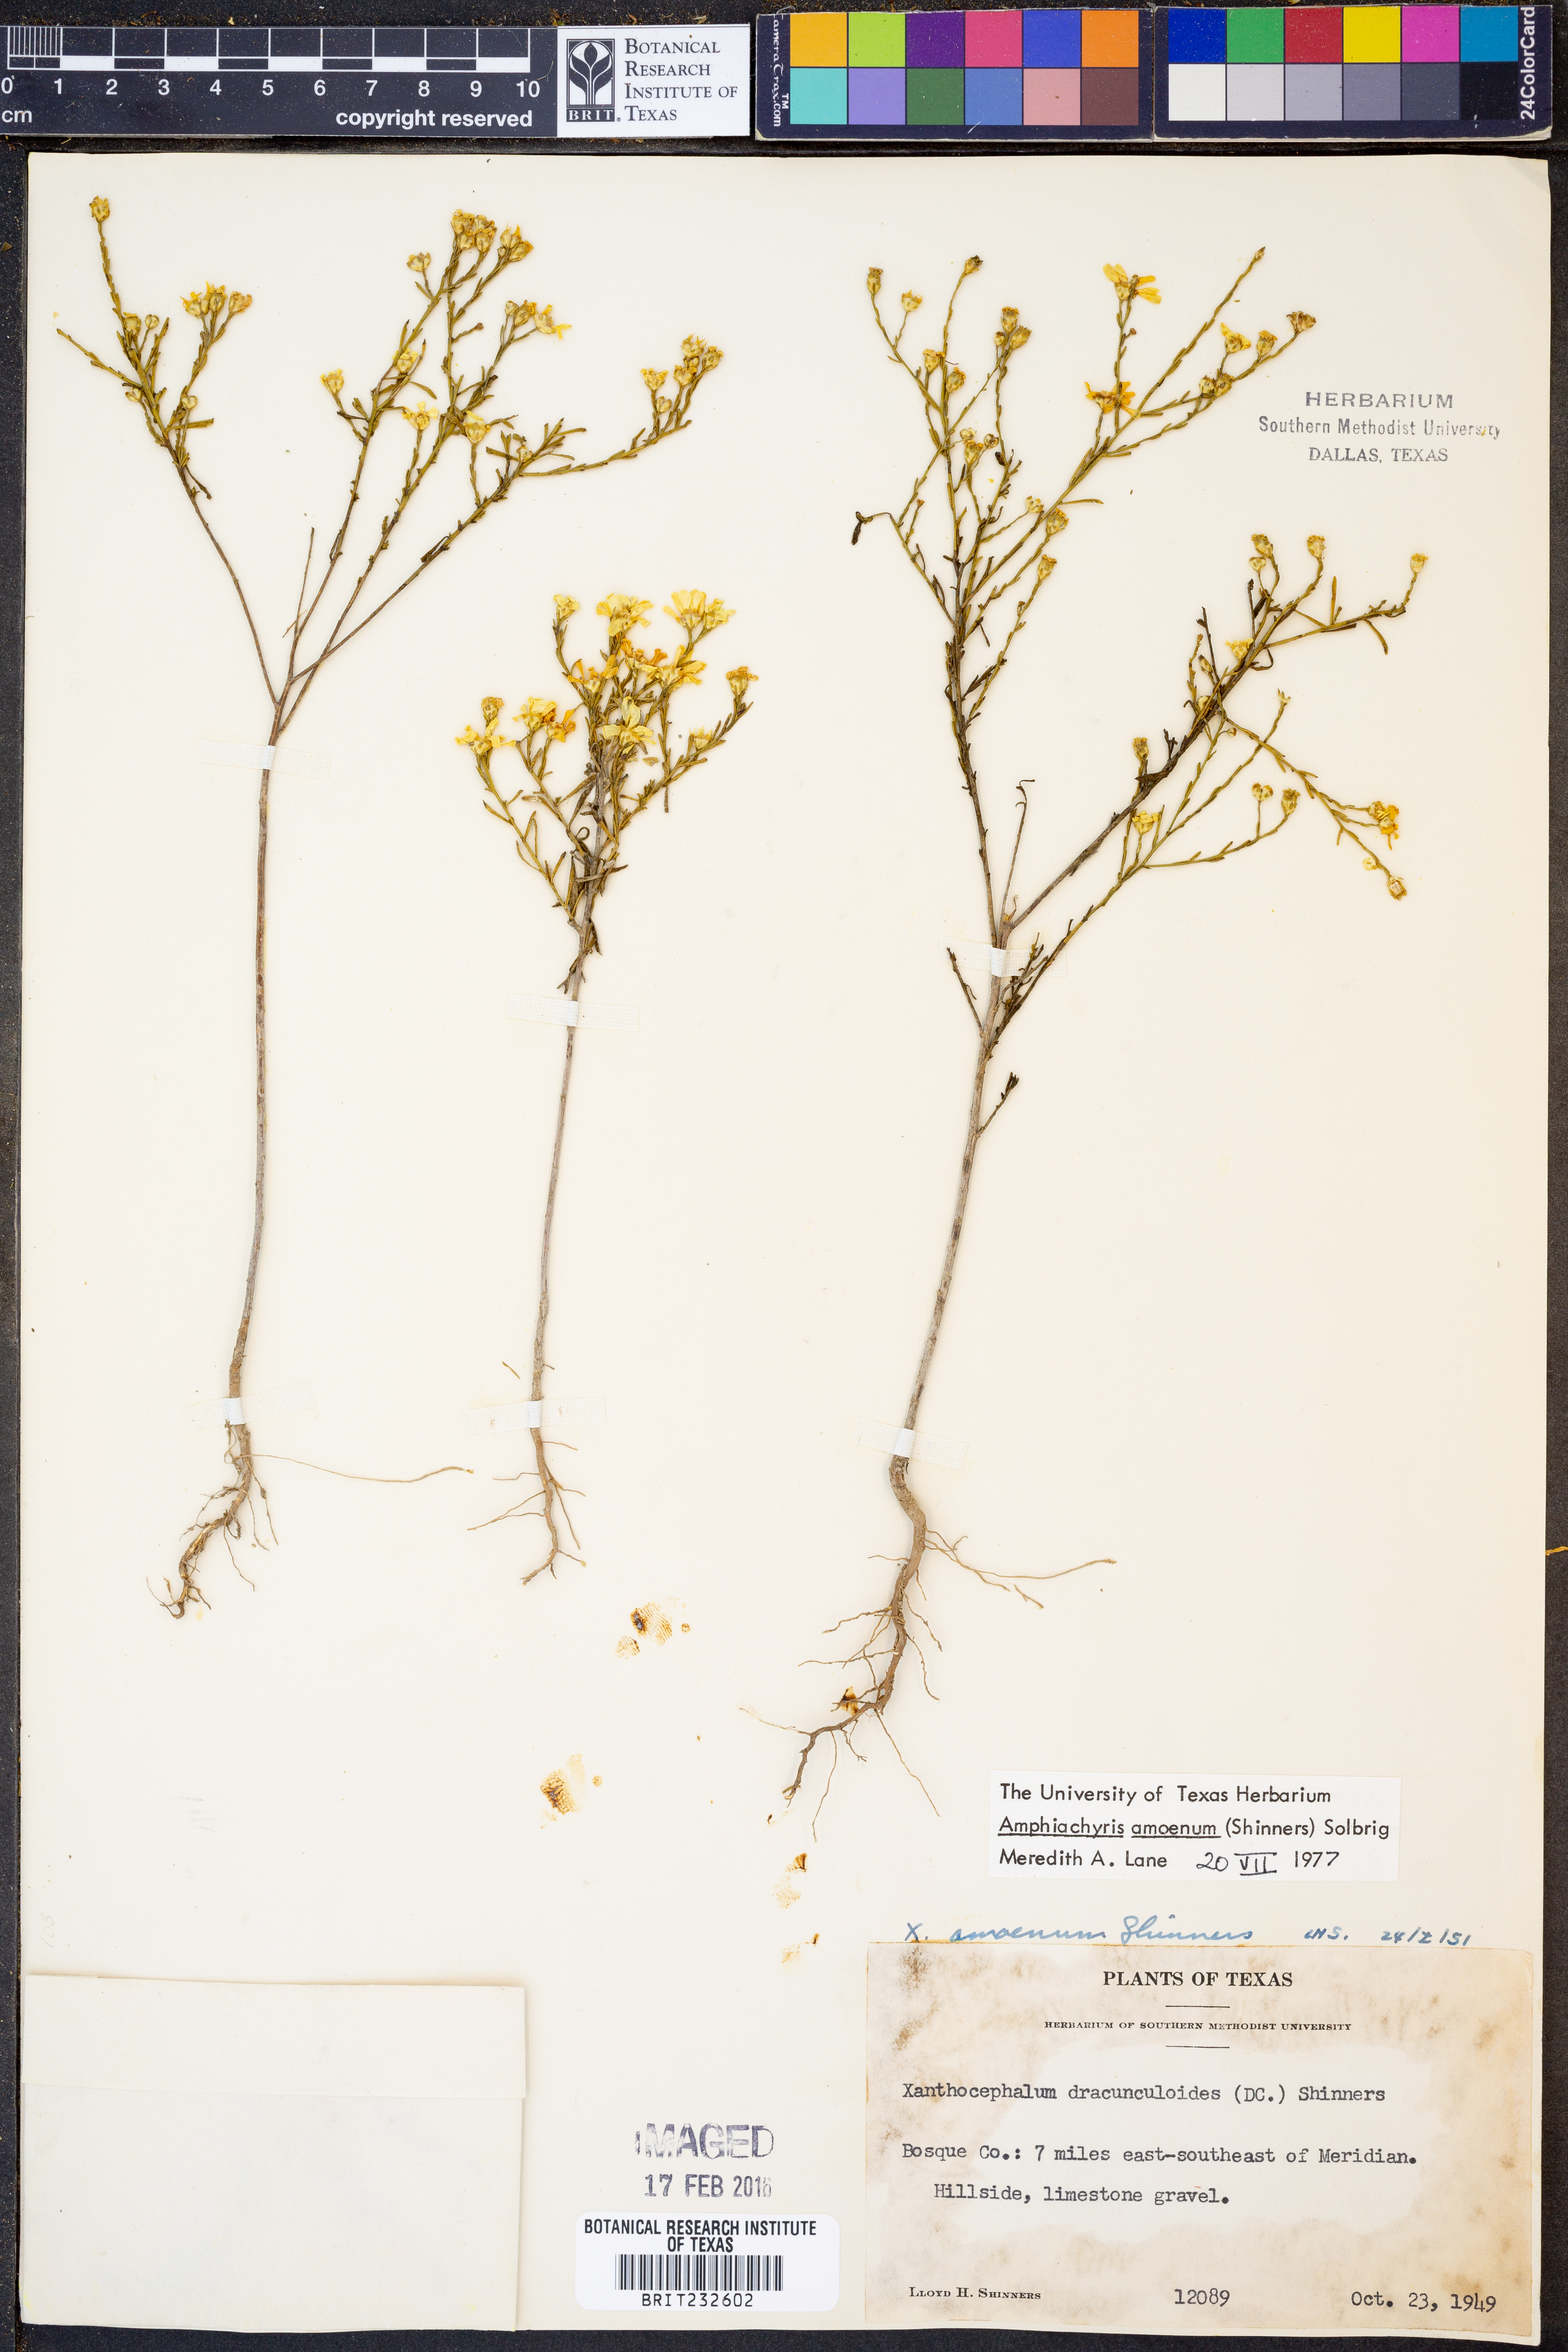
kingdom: Plantae
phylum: Tracheophyta
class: Magnoliopsida
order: Asterales
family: Asteraceae
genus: Amphiachyris
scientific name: Amphiachyris amoenum
